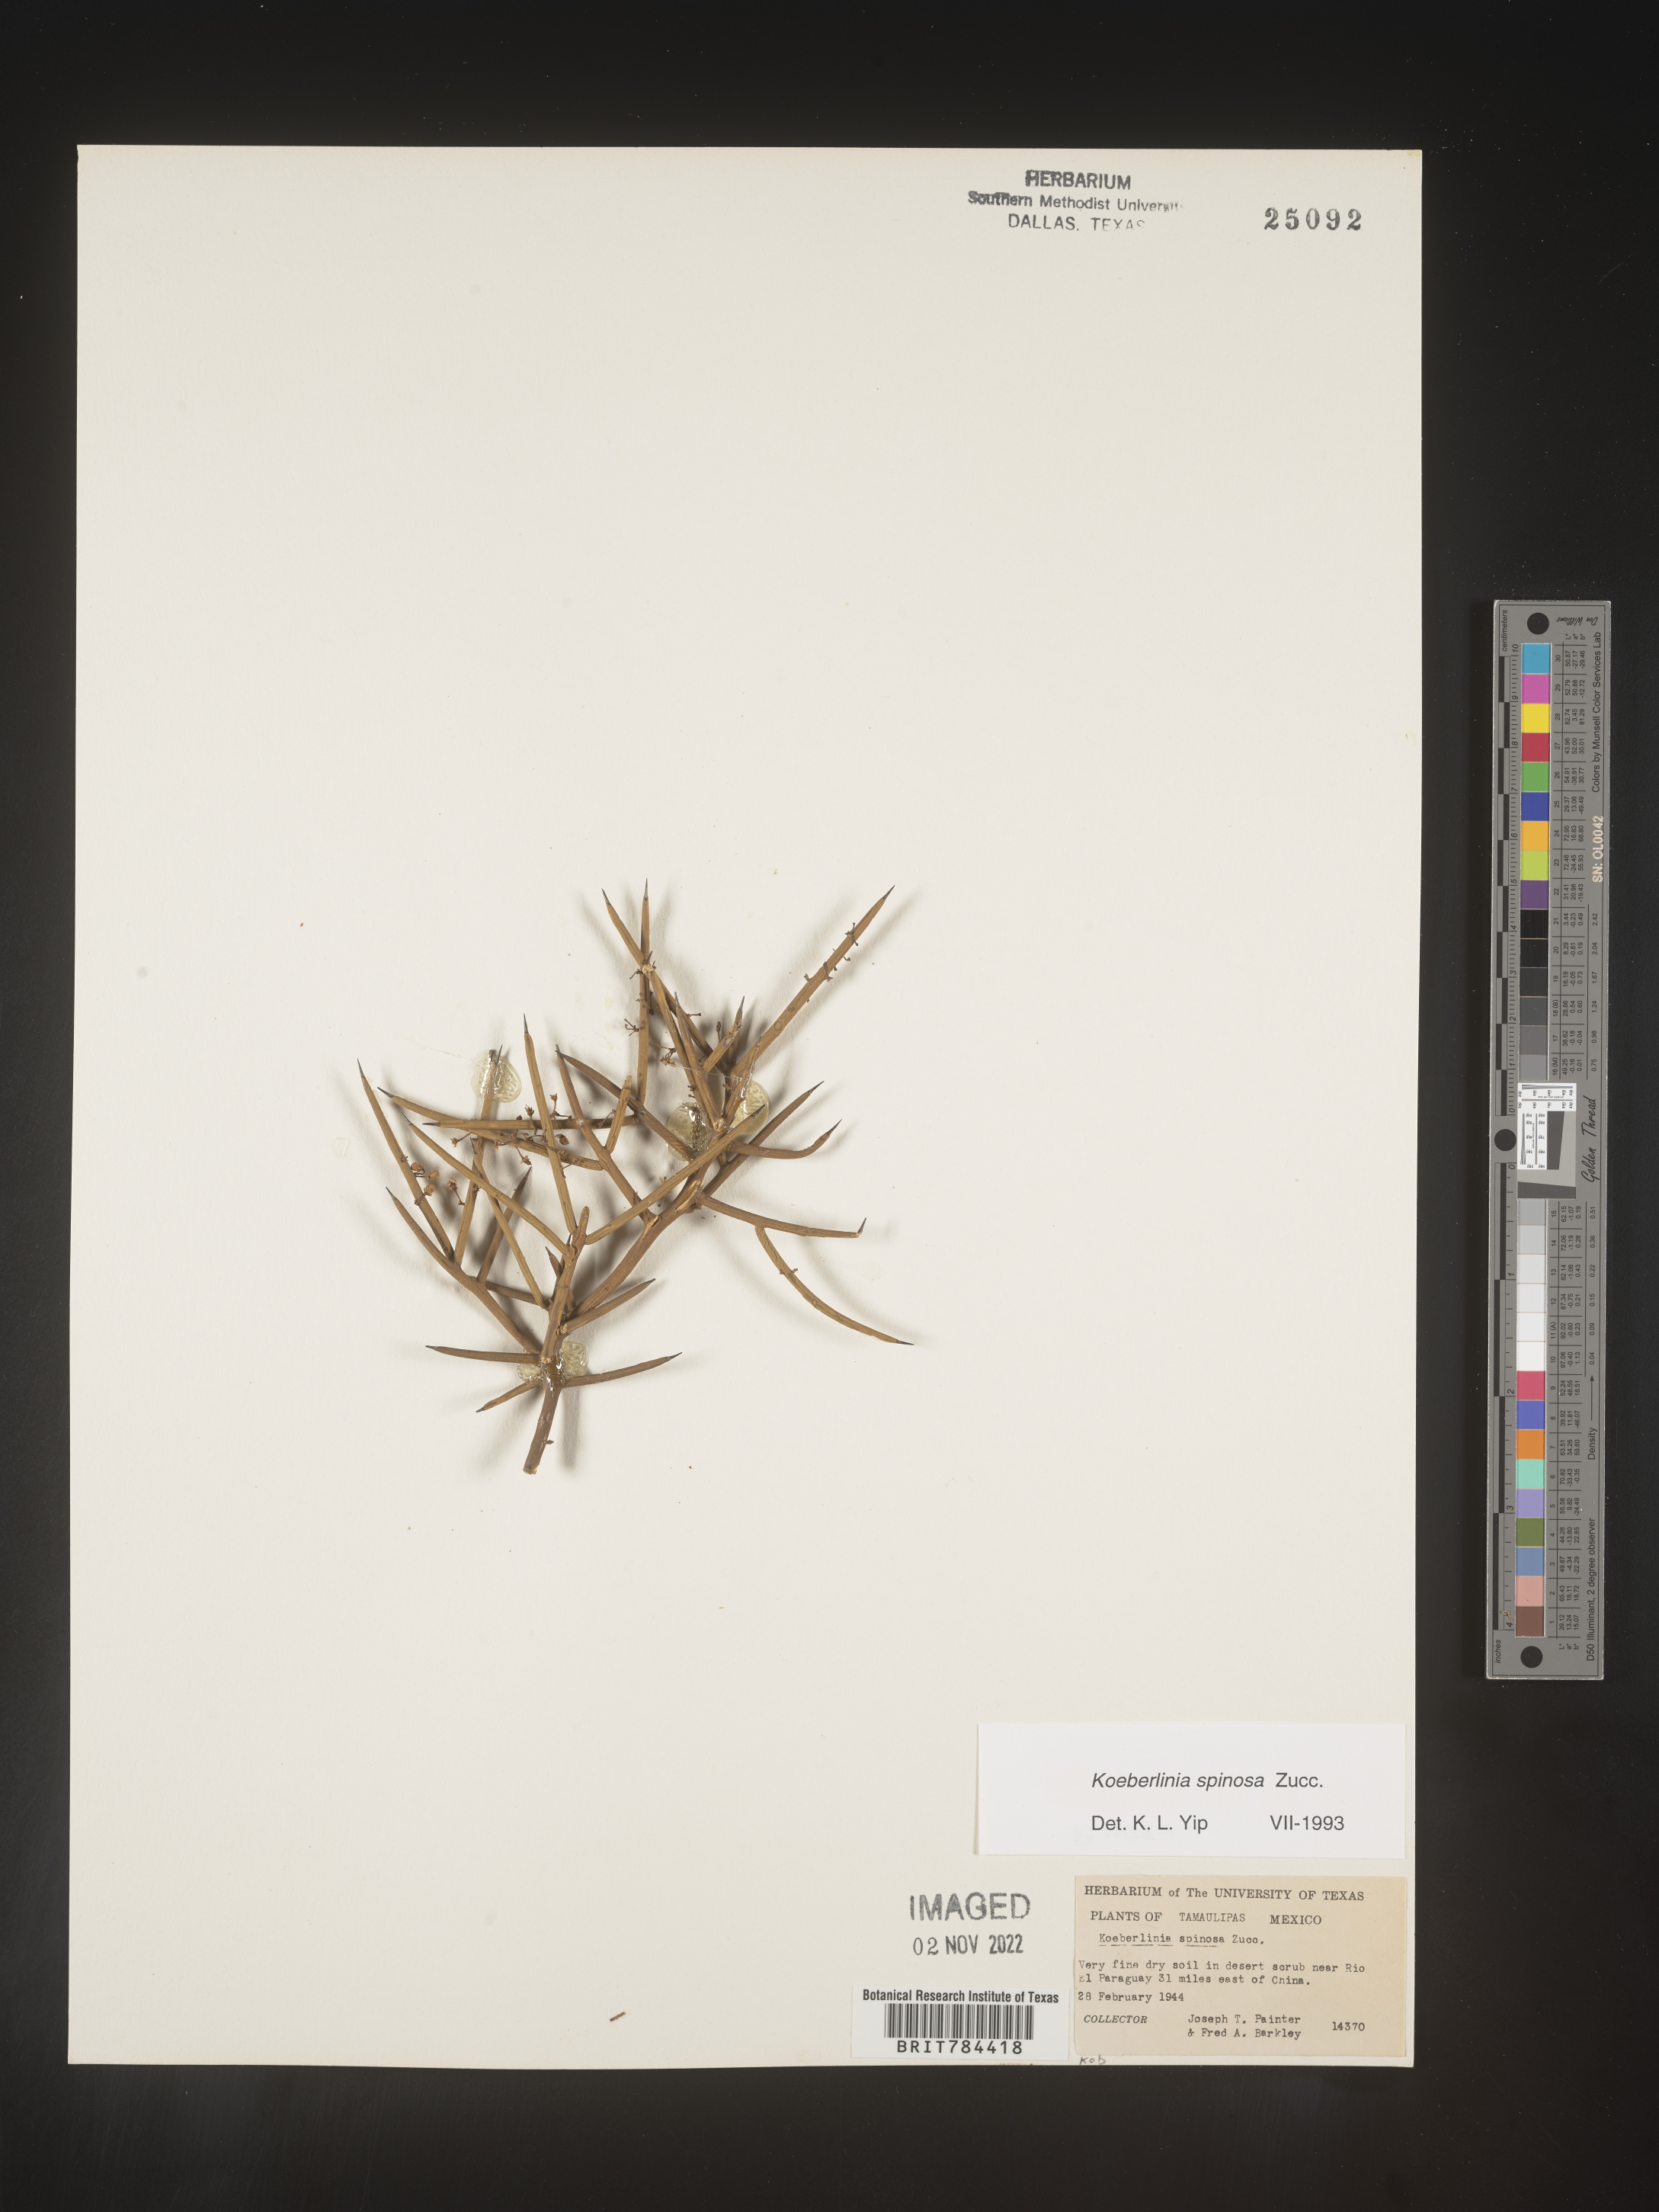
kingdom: Plantae
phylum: Tracheophyta
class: Magnoliopsida
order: Brassicales
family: Koeberliniaceae
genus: Koeberlinia
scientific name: Koeberlinia spinosa
